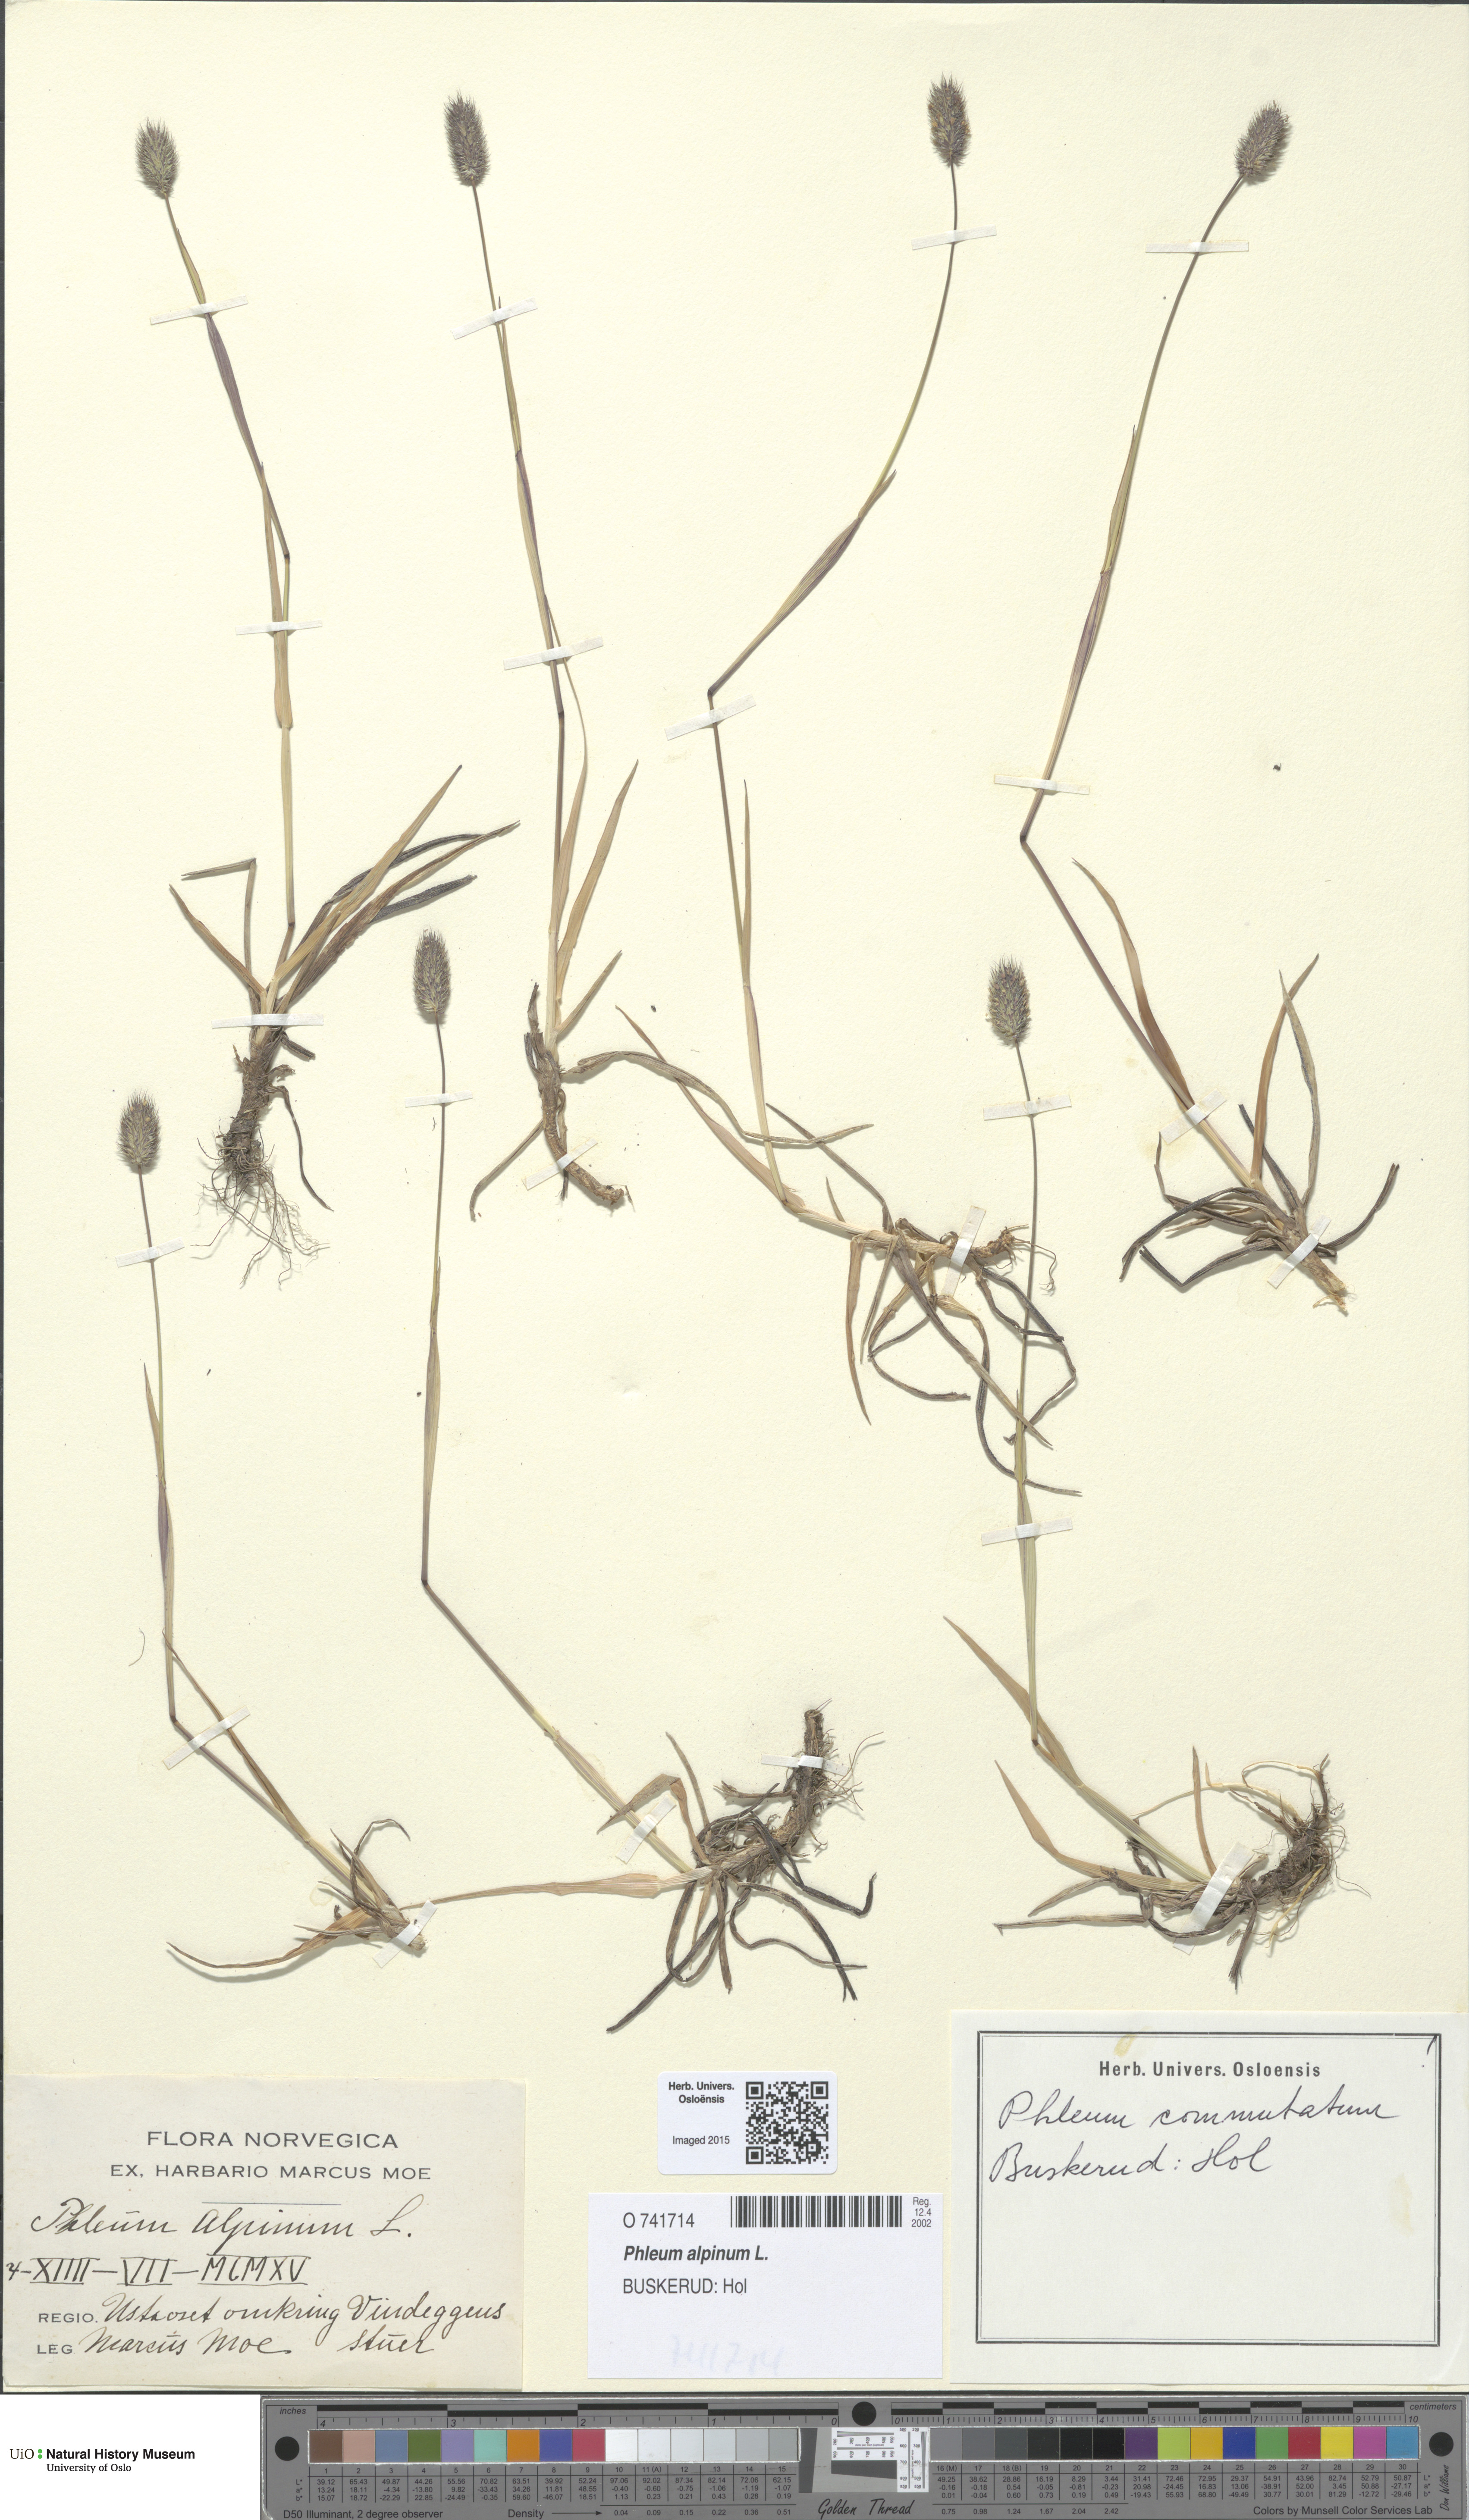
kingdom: Plantae
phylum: Tracheophyta
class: Liliopsida
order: Poales
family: Poaceae
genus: Phleum
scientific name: Phleum alpinum
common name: Alpine cat's-tail
